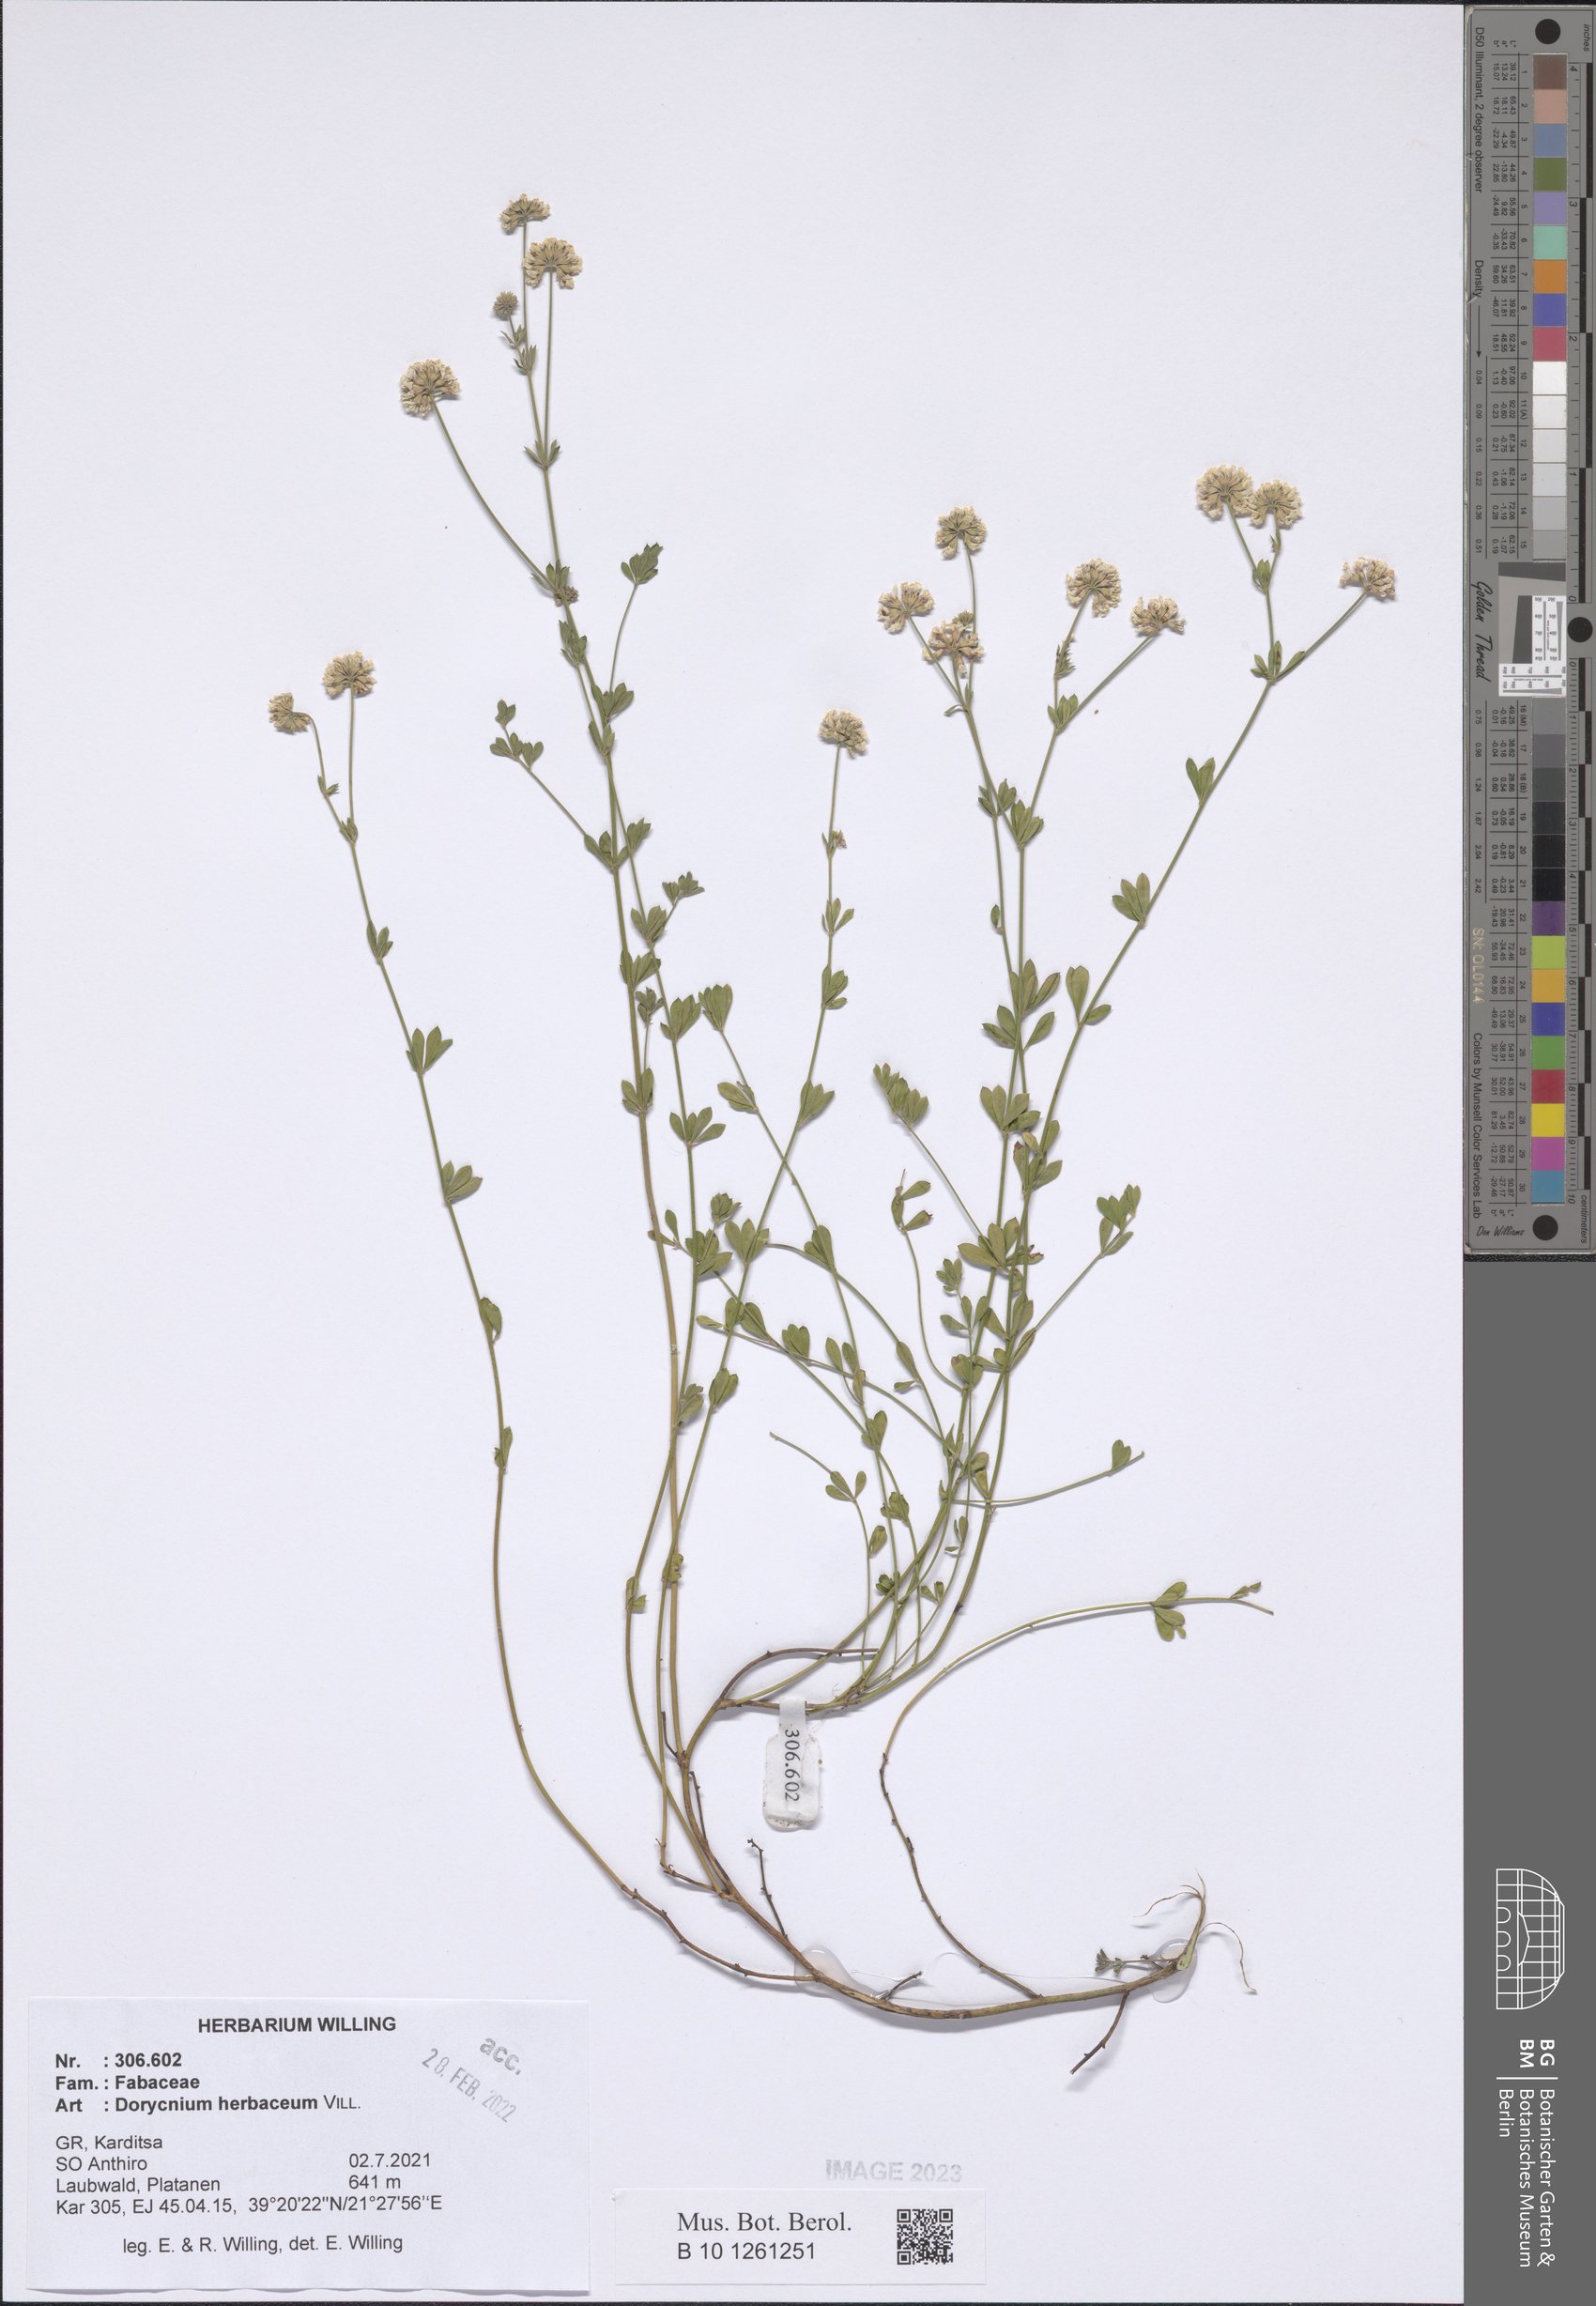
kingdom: Plantae
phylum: Tracheophyta
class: Magnoliopsida
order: Fabales
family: Fabaceae
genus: Lotus
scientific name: Lotus herbaceus
